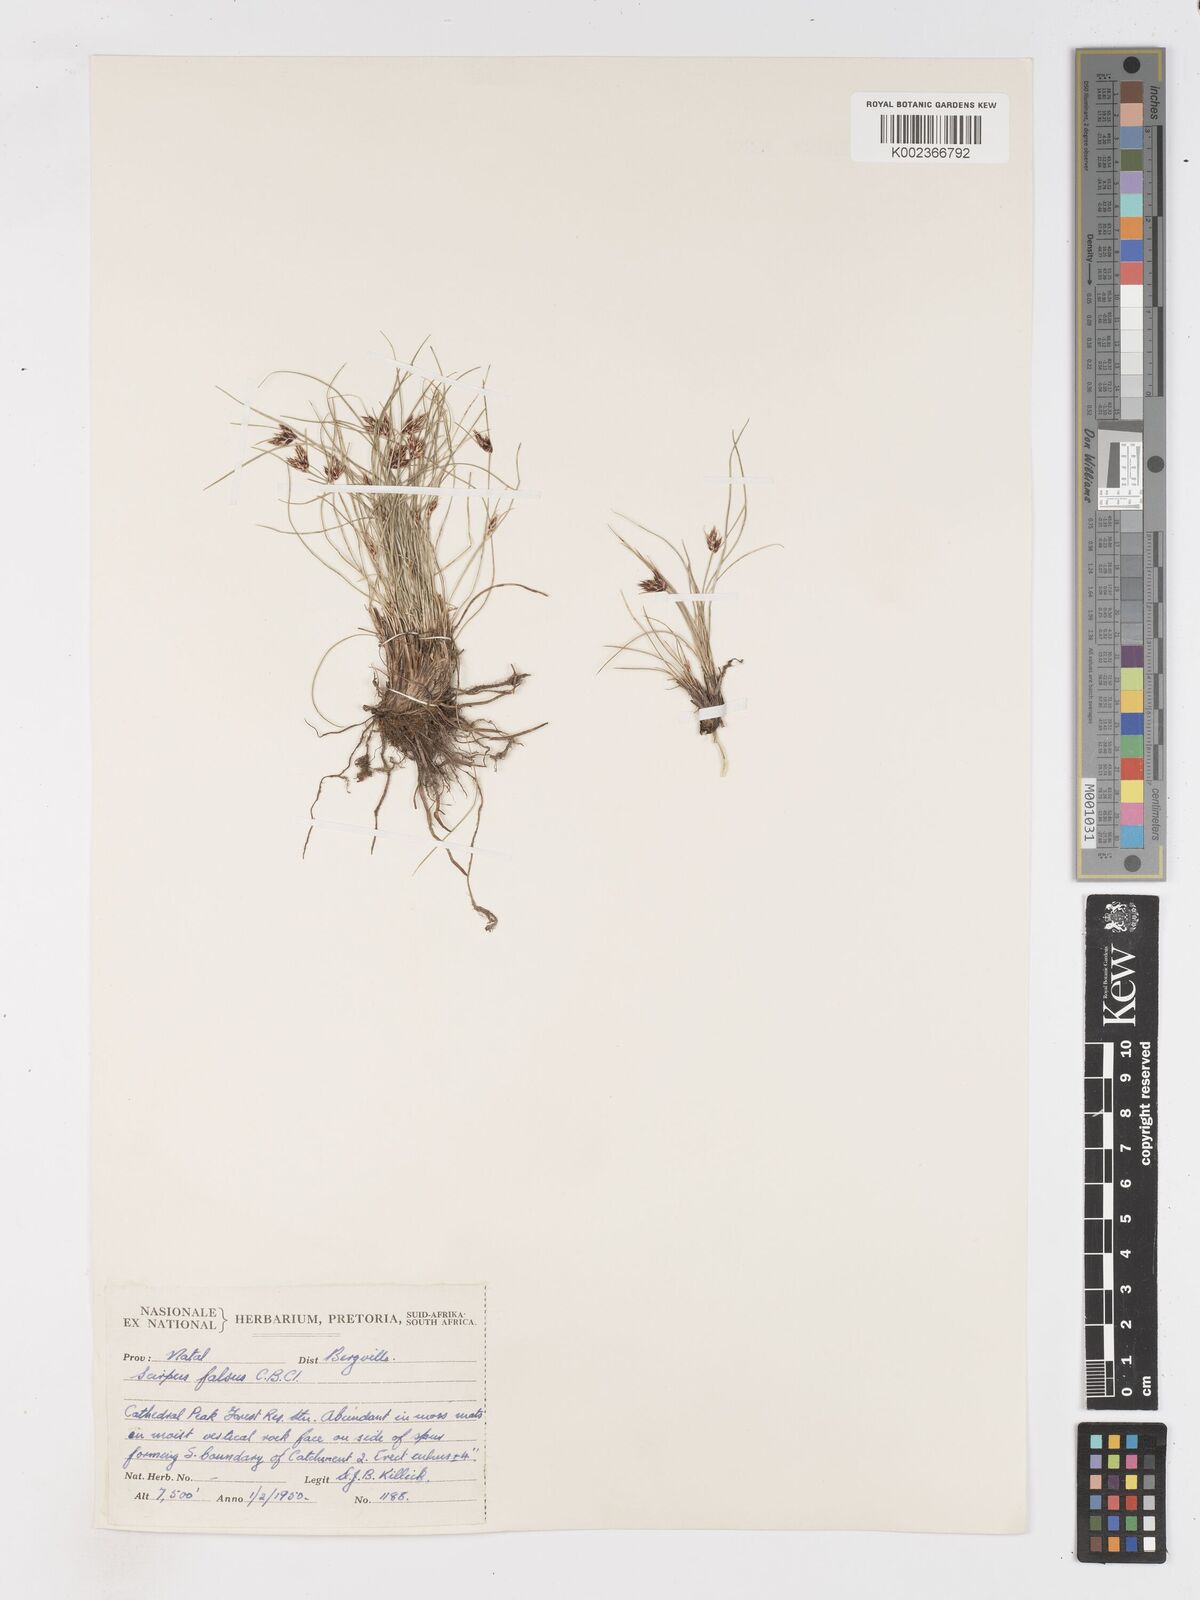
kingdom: Plantae
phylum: Tracheophyta
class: Liliopsida
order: Poales
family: Cyperaceae
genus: Dracoscirpoides
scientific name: Dracoscirpoides falsa
